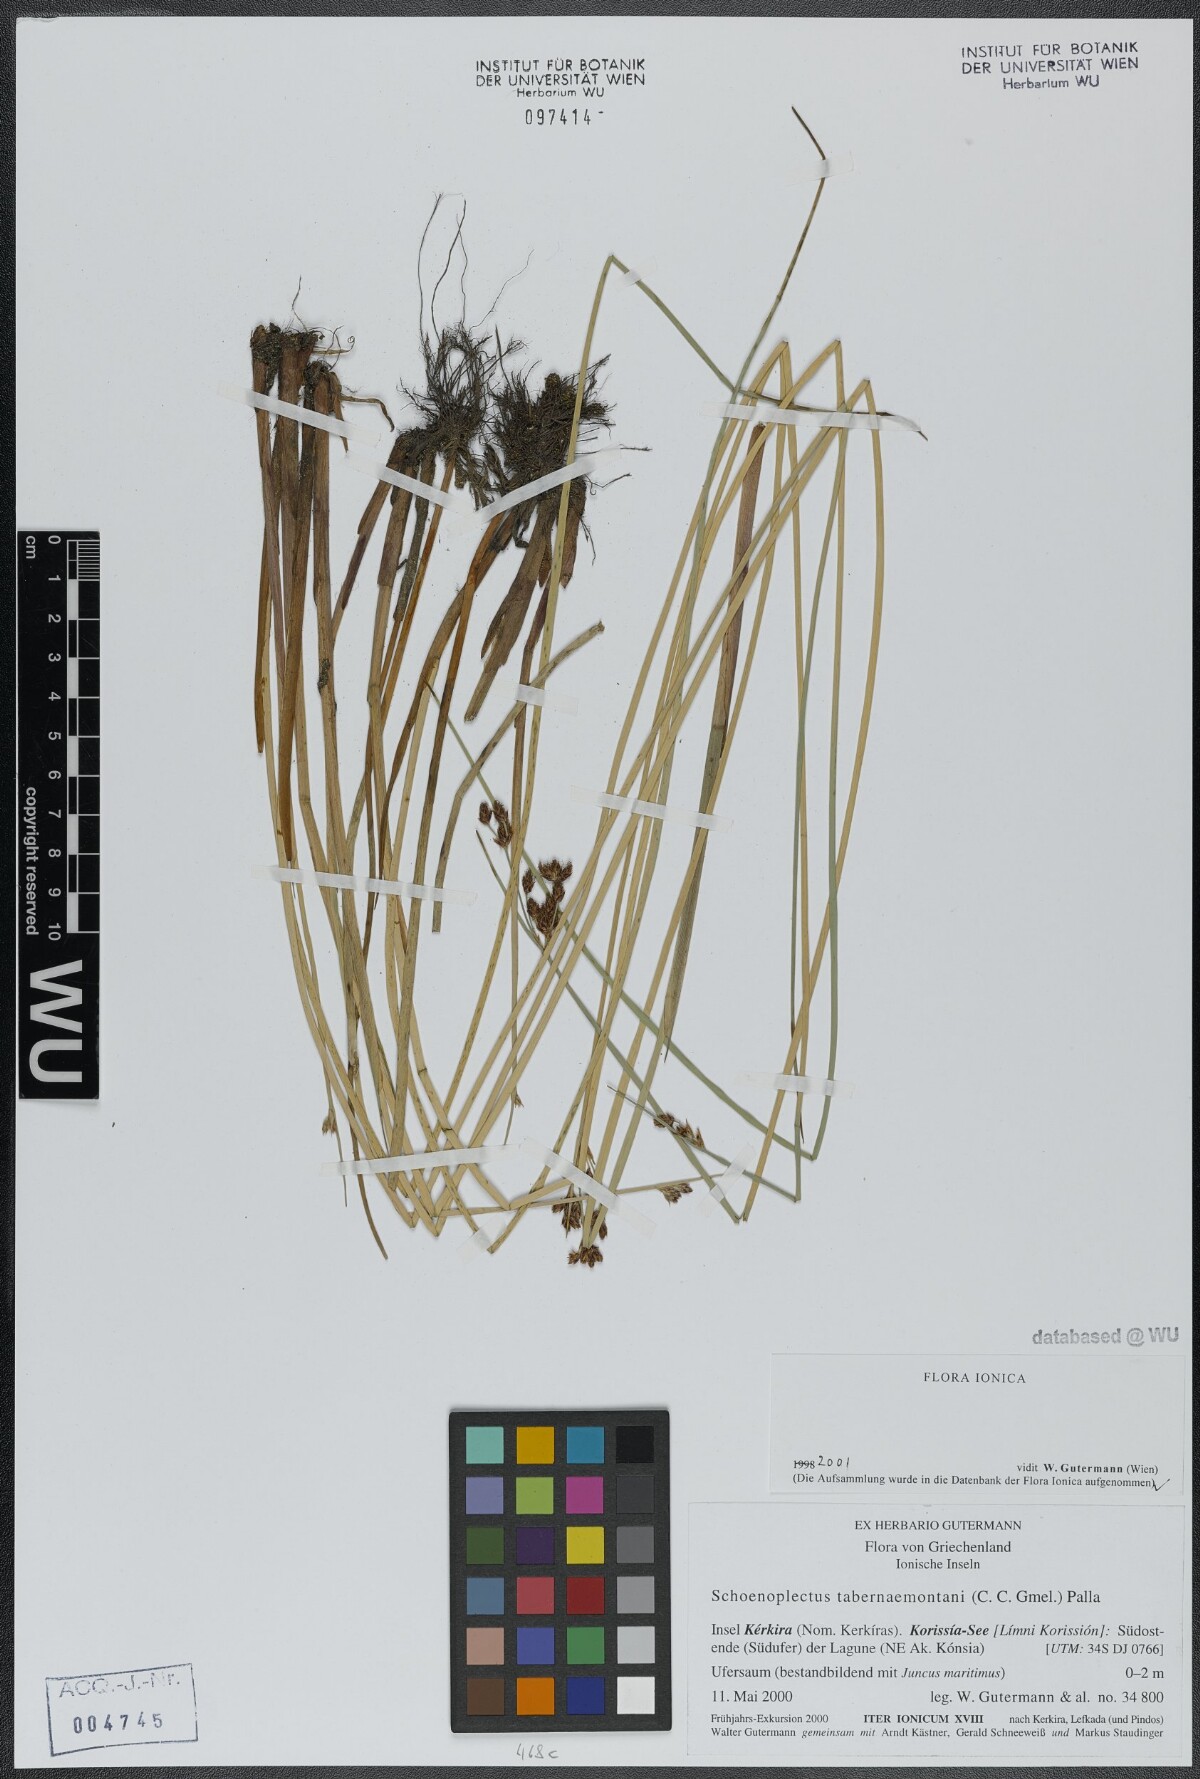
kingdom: Plantae
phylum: Tracheophyta
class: Liliopsida
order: Poales
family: Cyperaceae
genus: Schoenoplectus
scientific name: Schoenoplectus tabernaemontani
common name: Grey club-rush
